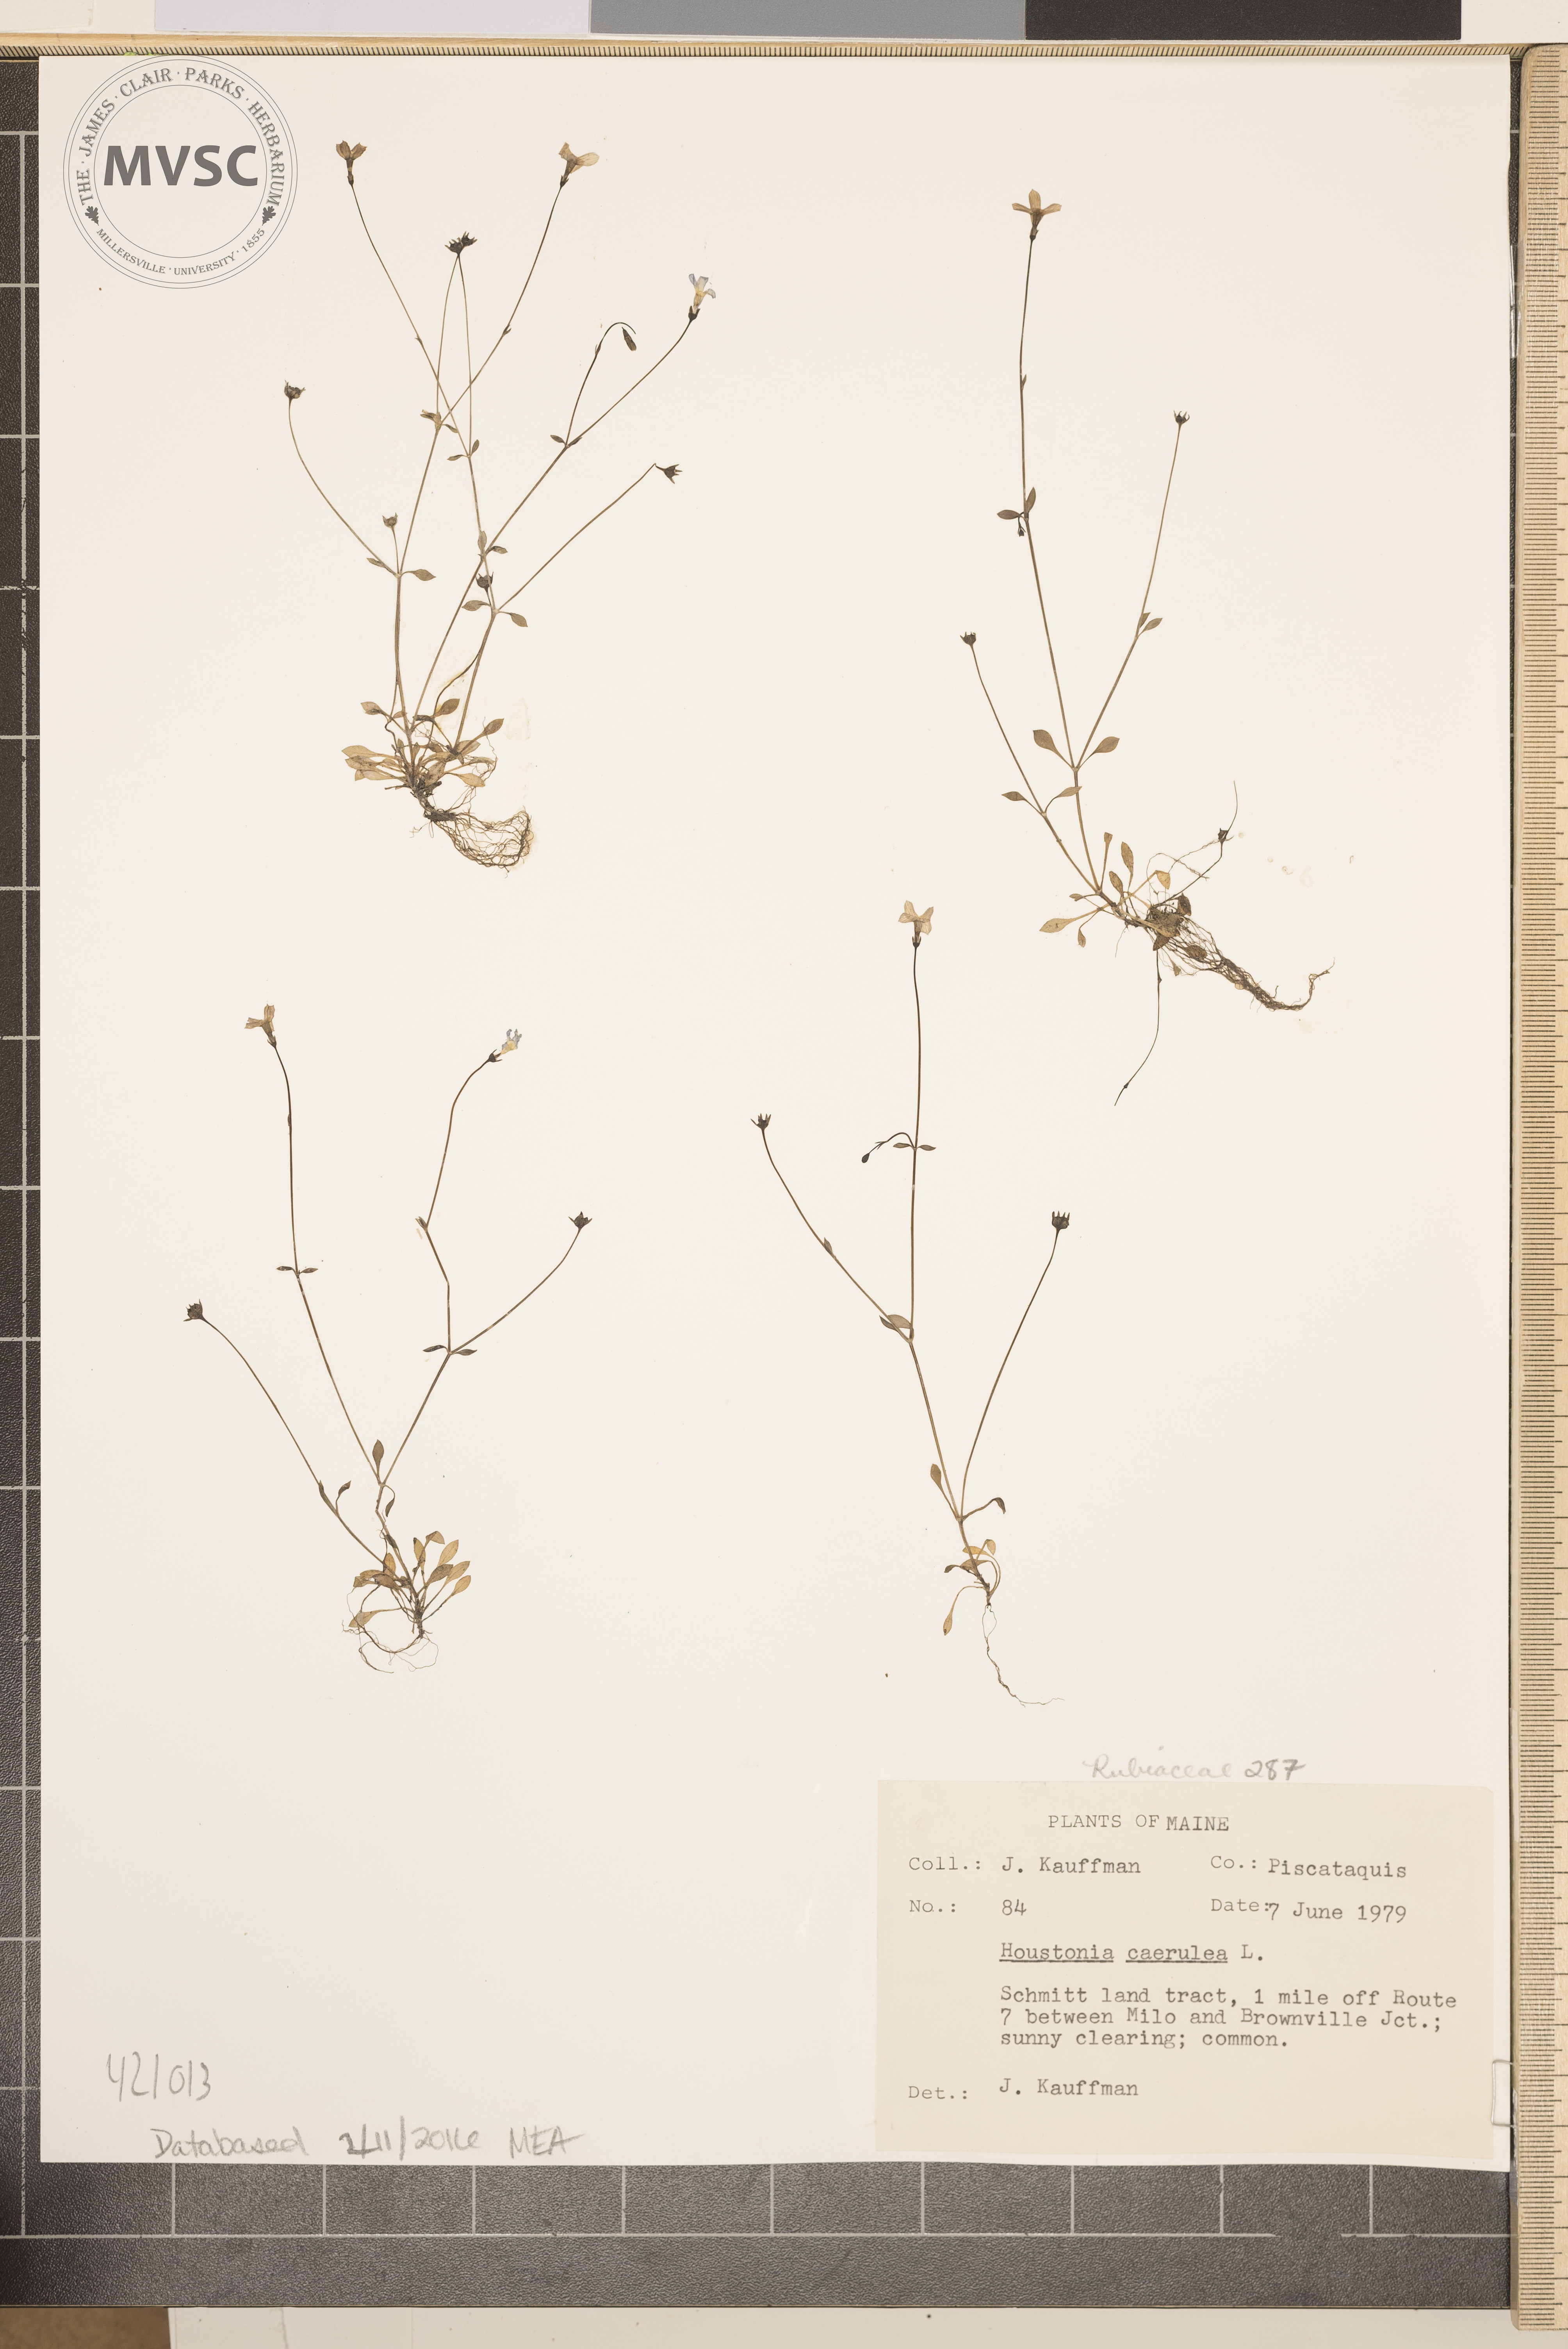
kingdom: Plantae
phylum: Tracheophyta
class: Magnoliopsida
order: Gentianales
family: Rubiaceae
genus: Houstonia
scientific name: Houstonia caerulea
